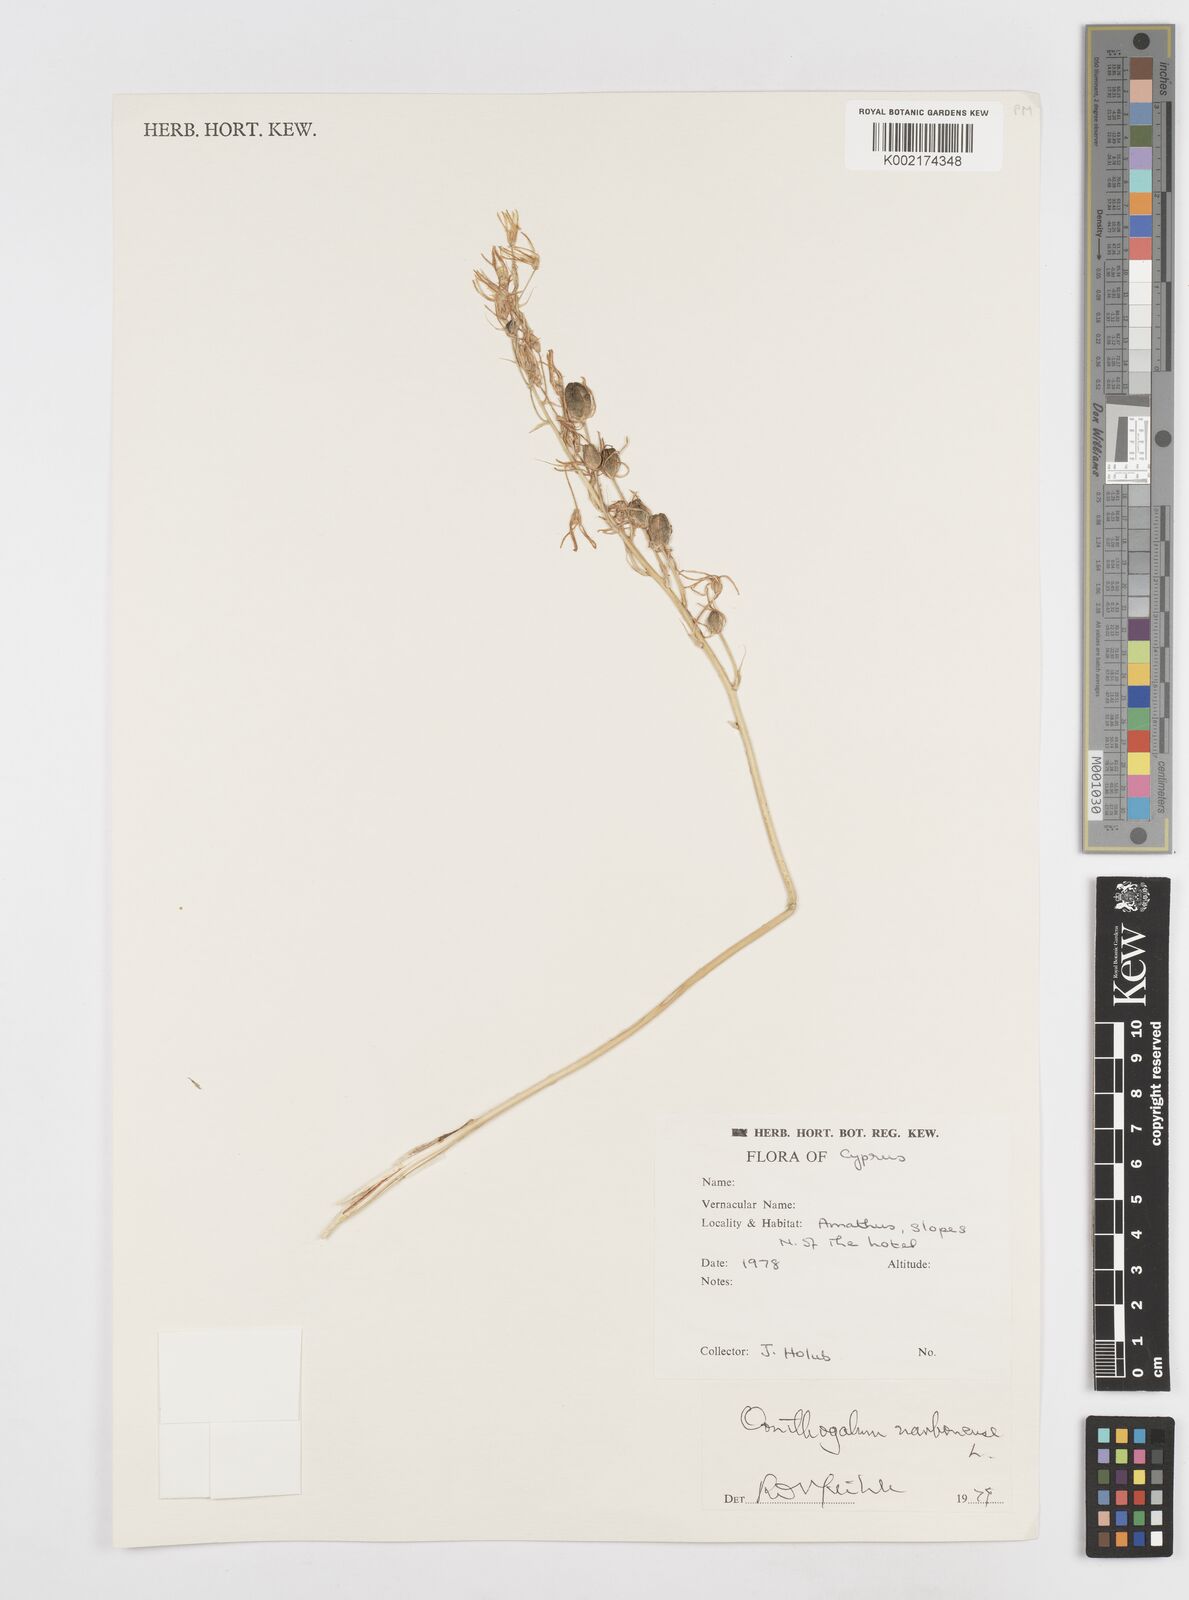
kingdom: Plantae
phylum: Tracheophyta
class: Liliopsida
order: Asparagales
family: Asparagaceae
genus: Ornithogalum
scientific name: Ornithogalum narbonense
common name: Bath-asparagus
